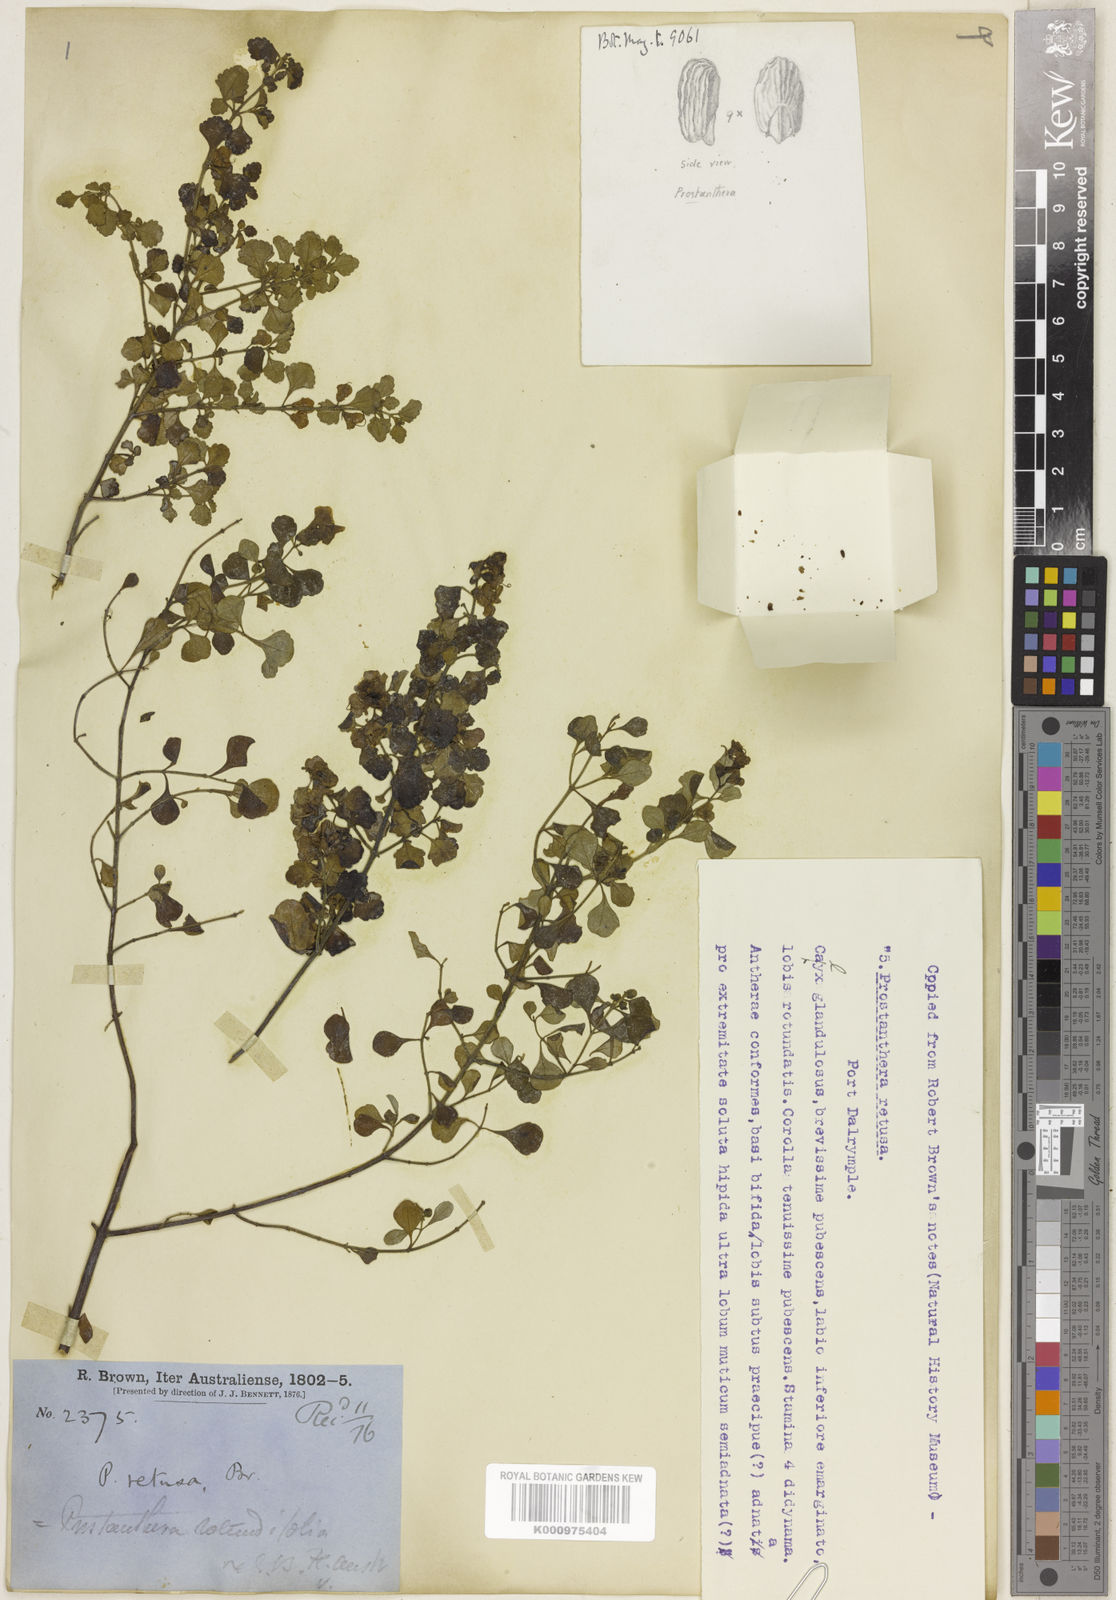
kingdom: Plantae
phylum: Tracheophyta
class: Magnoliopsida
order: Lamiales
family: Lamiaceae
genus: Prostanthera
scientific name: Prostanthera rotundifolia
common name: Round-leaf mintbush
